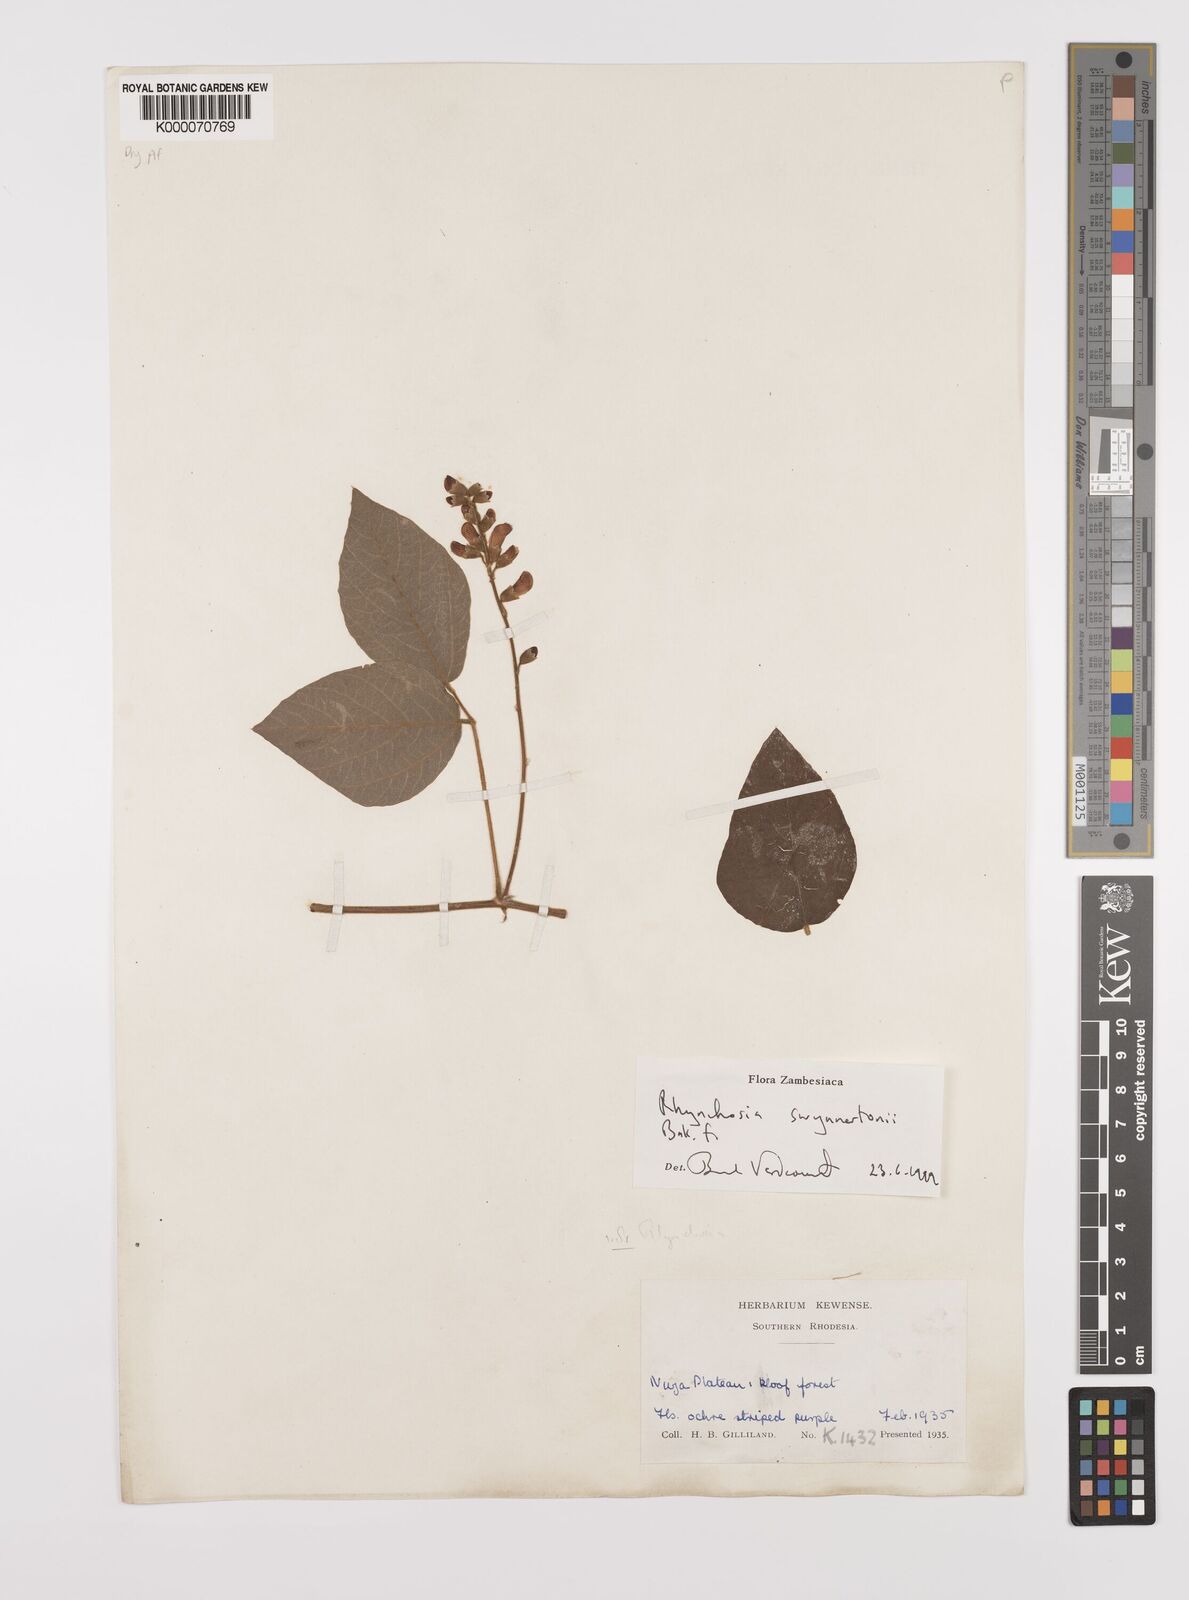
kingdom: Plantae
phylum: Tracheophyta
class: Magnoliopsida
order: Fabales
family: Fabaceae
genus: Rhynchosia
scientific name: Rhynchosia swynnertonii
